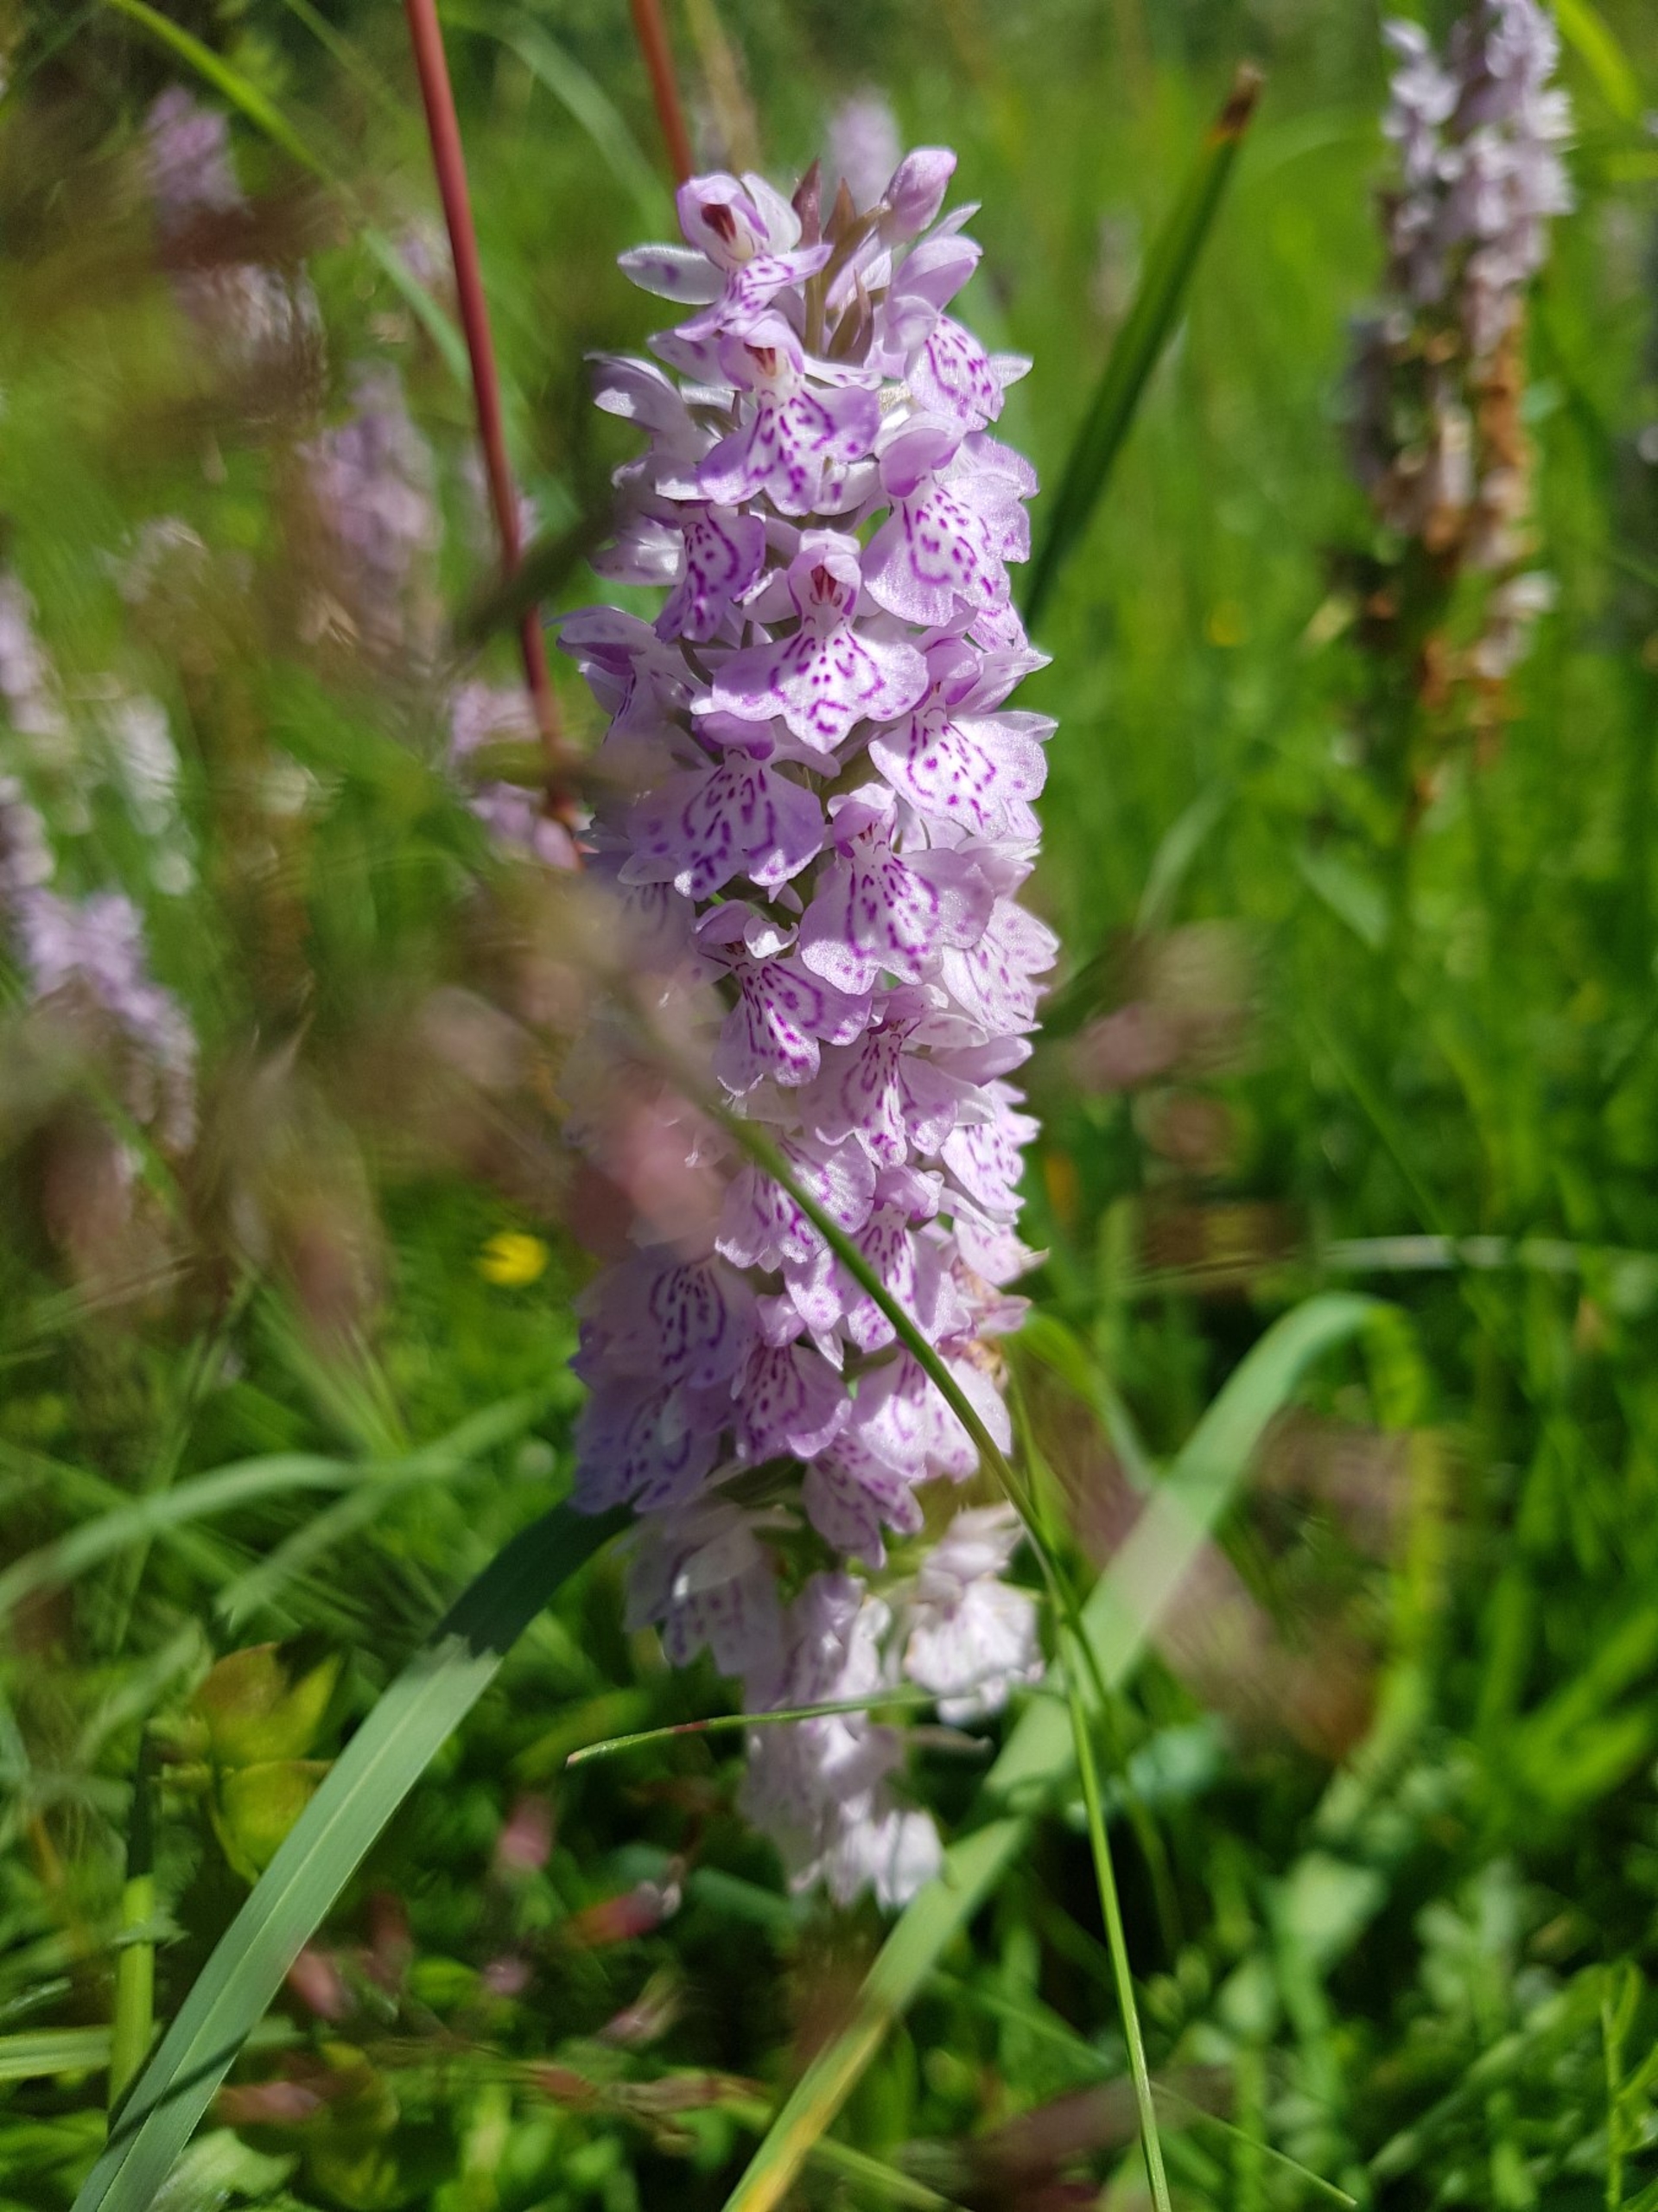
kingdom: Plantae
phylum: Tracheophyta
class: Liliopsida
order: Asparagales
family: Orchidaceae
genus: Dactylorhiza
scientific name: Dactylorhiza maculata
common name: Plettet gøgeurt
